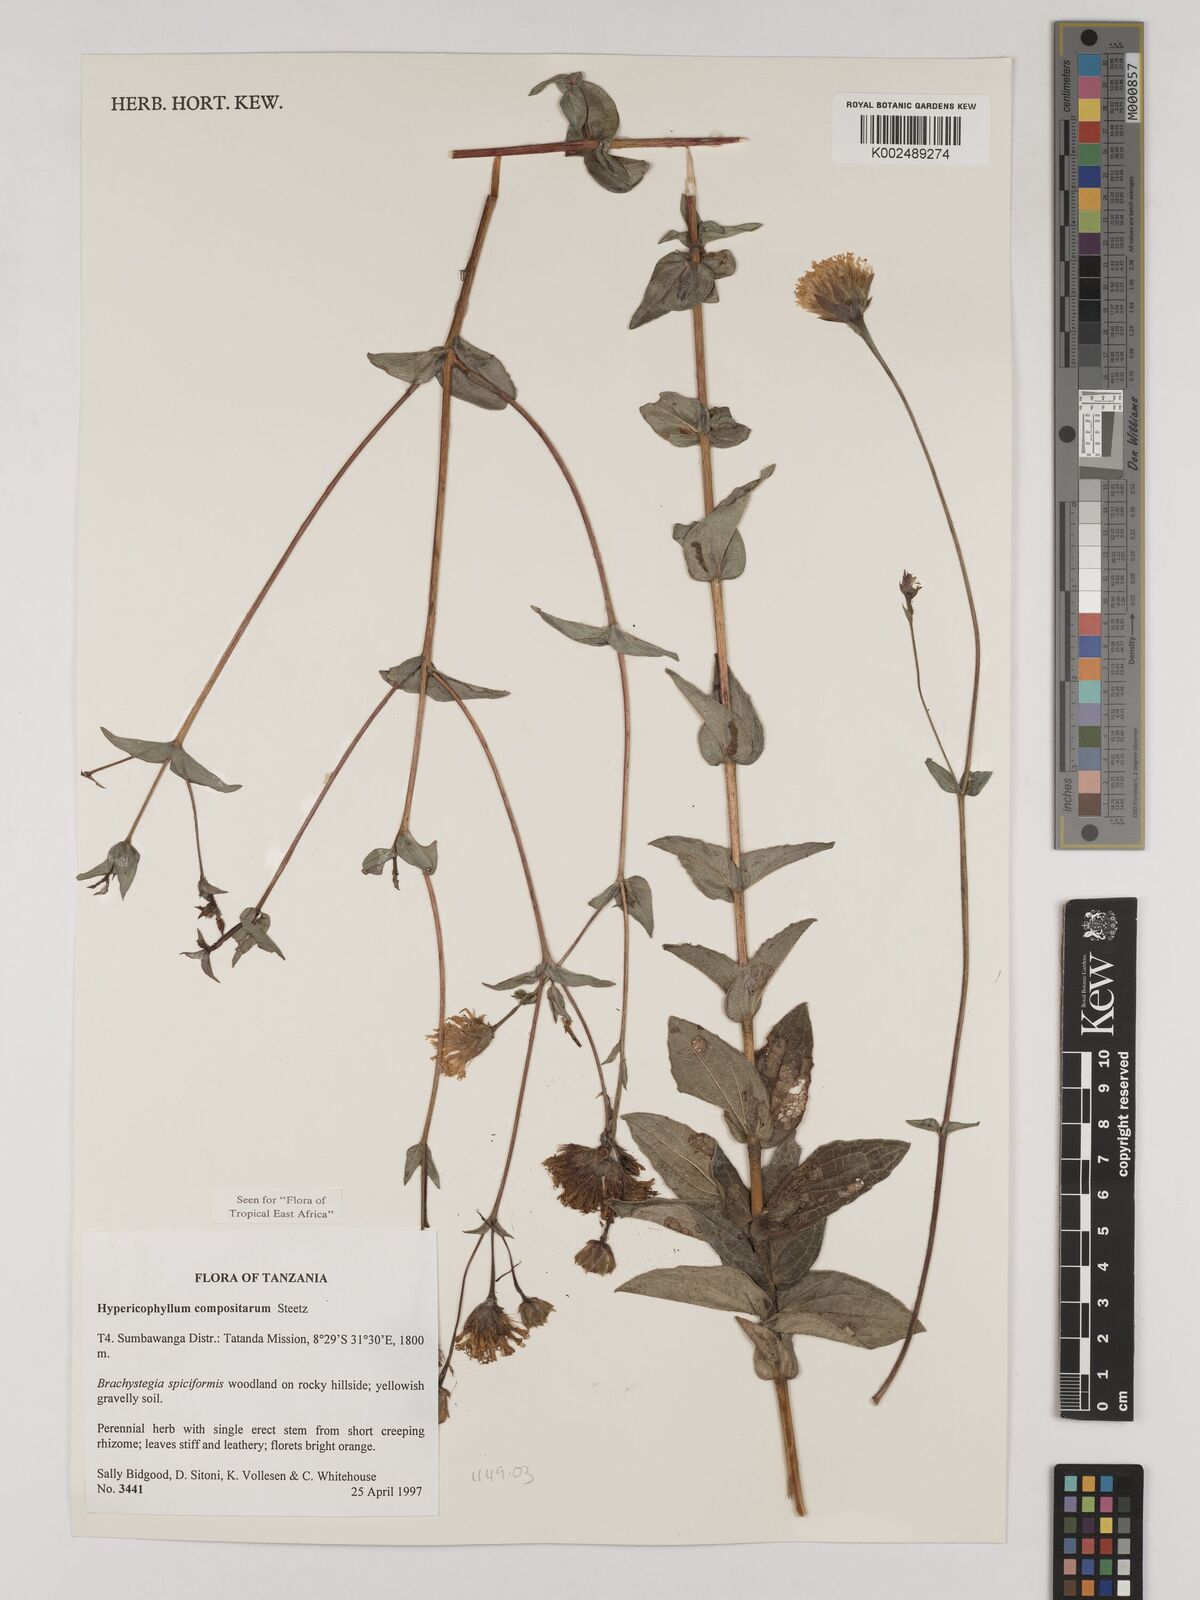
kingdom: Plantae
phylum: Tracheophyta
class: Magnoliopsida
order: Asterales
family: Asteraceae
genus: Hypericophyllum
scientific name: Hypericophyllum compositarum
